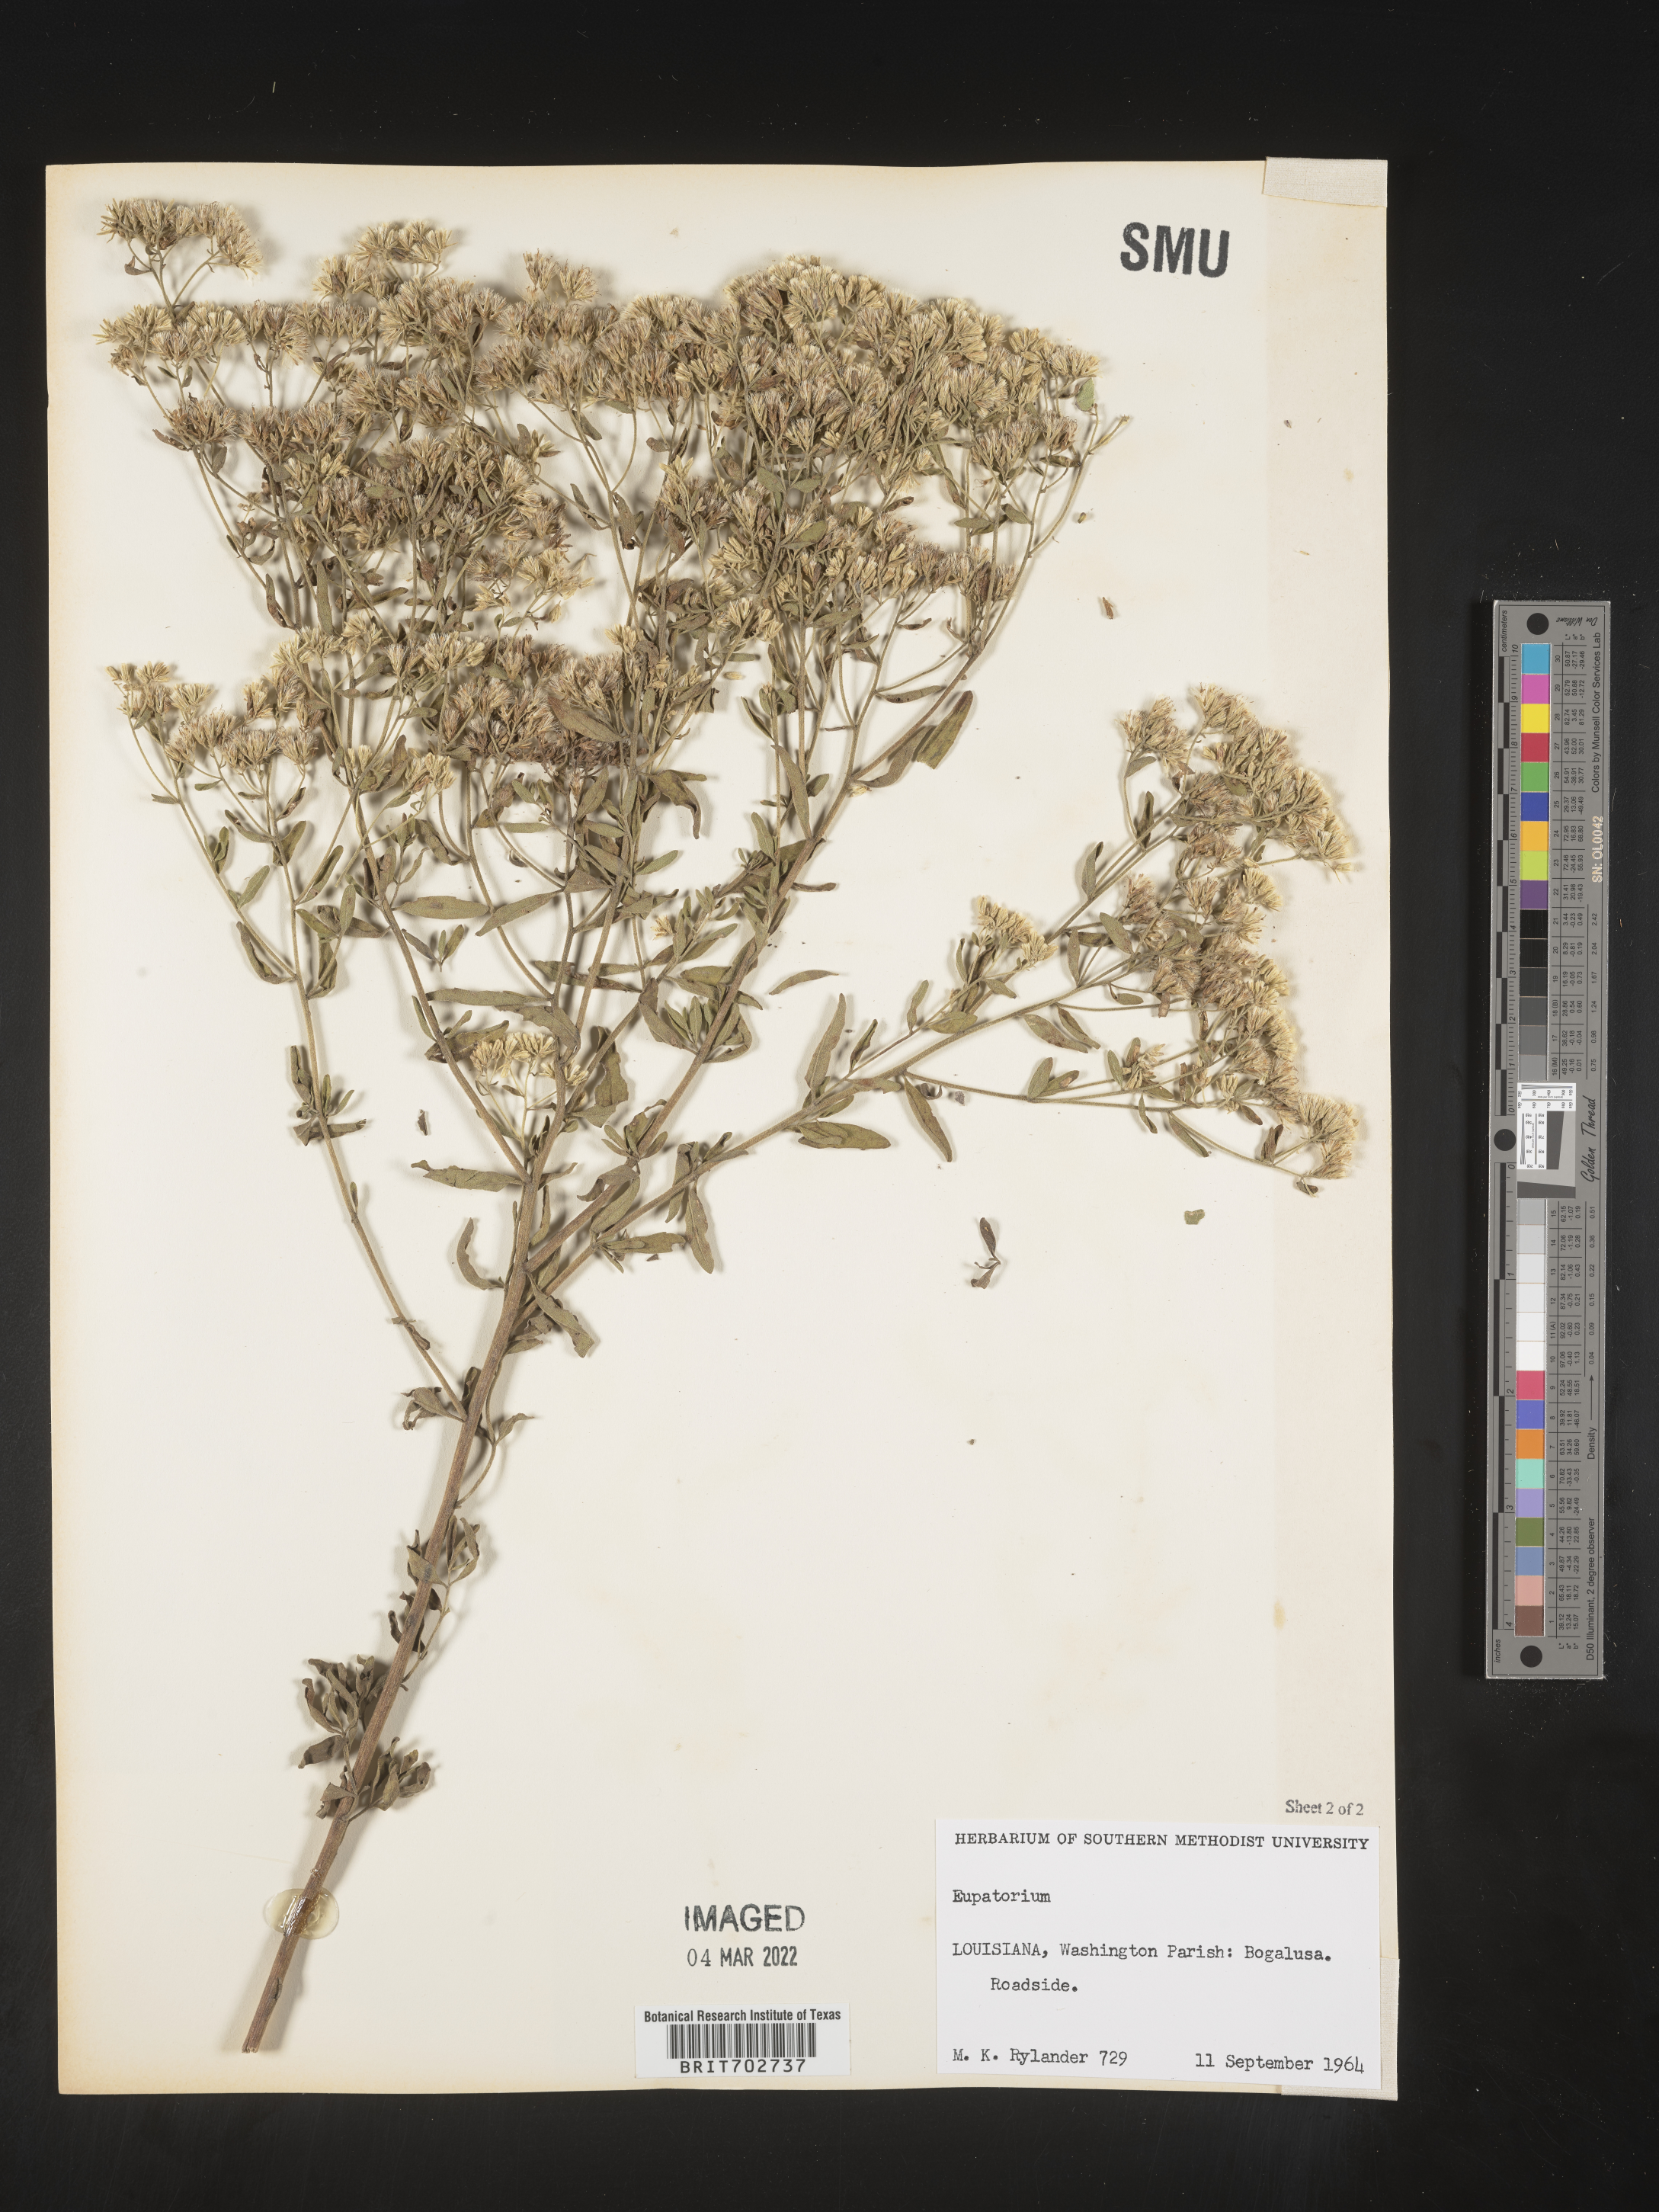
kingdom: Plantae
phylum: Tracheophyta
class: Magnoliopsida
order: Asterales
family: Asteraceae
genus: Eupatorium
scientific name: Eupatorium
